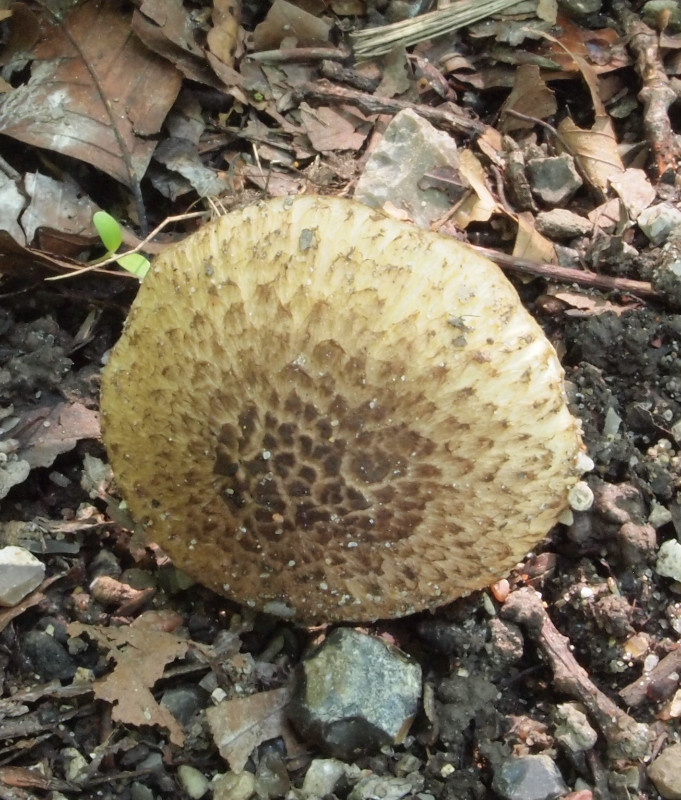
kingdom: Fungi
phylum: Basidiomycota
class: Agaricomycetes
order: Agaricales
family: Inocybaceae
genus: Inocybe
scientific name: Inocybe erinaceomorpha
